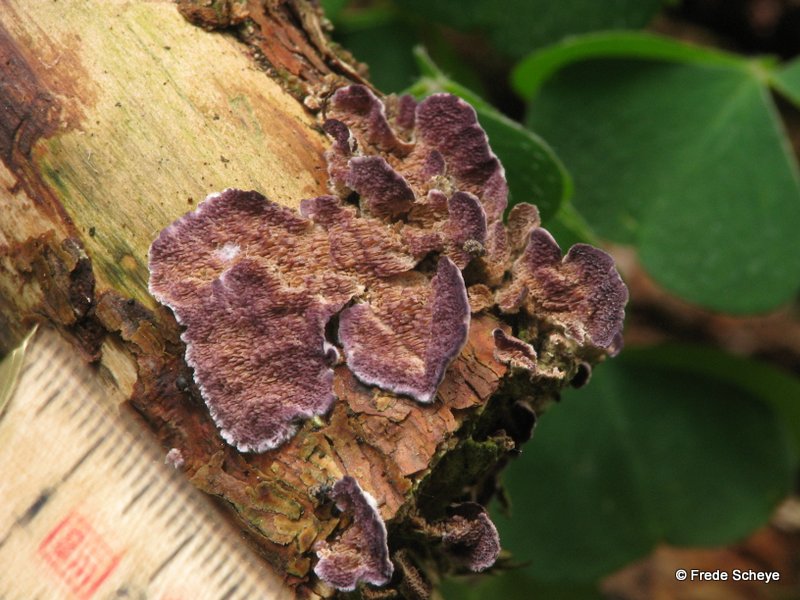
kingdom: Fungi
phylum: Basidiomycota
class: Agaricomycetes
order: Hymenochaetales
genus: Trichaptum
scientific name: Trichaptum abietinum
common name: almindelig violporesvamp
